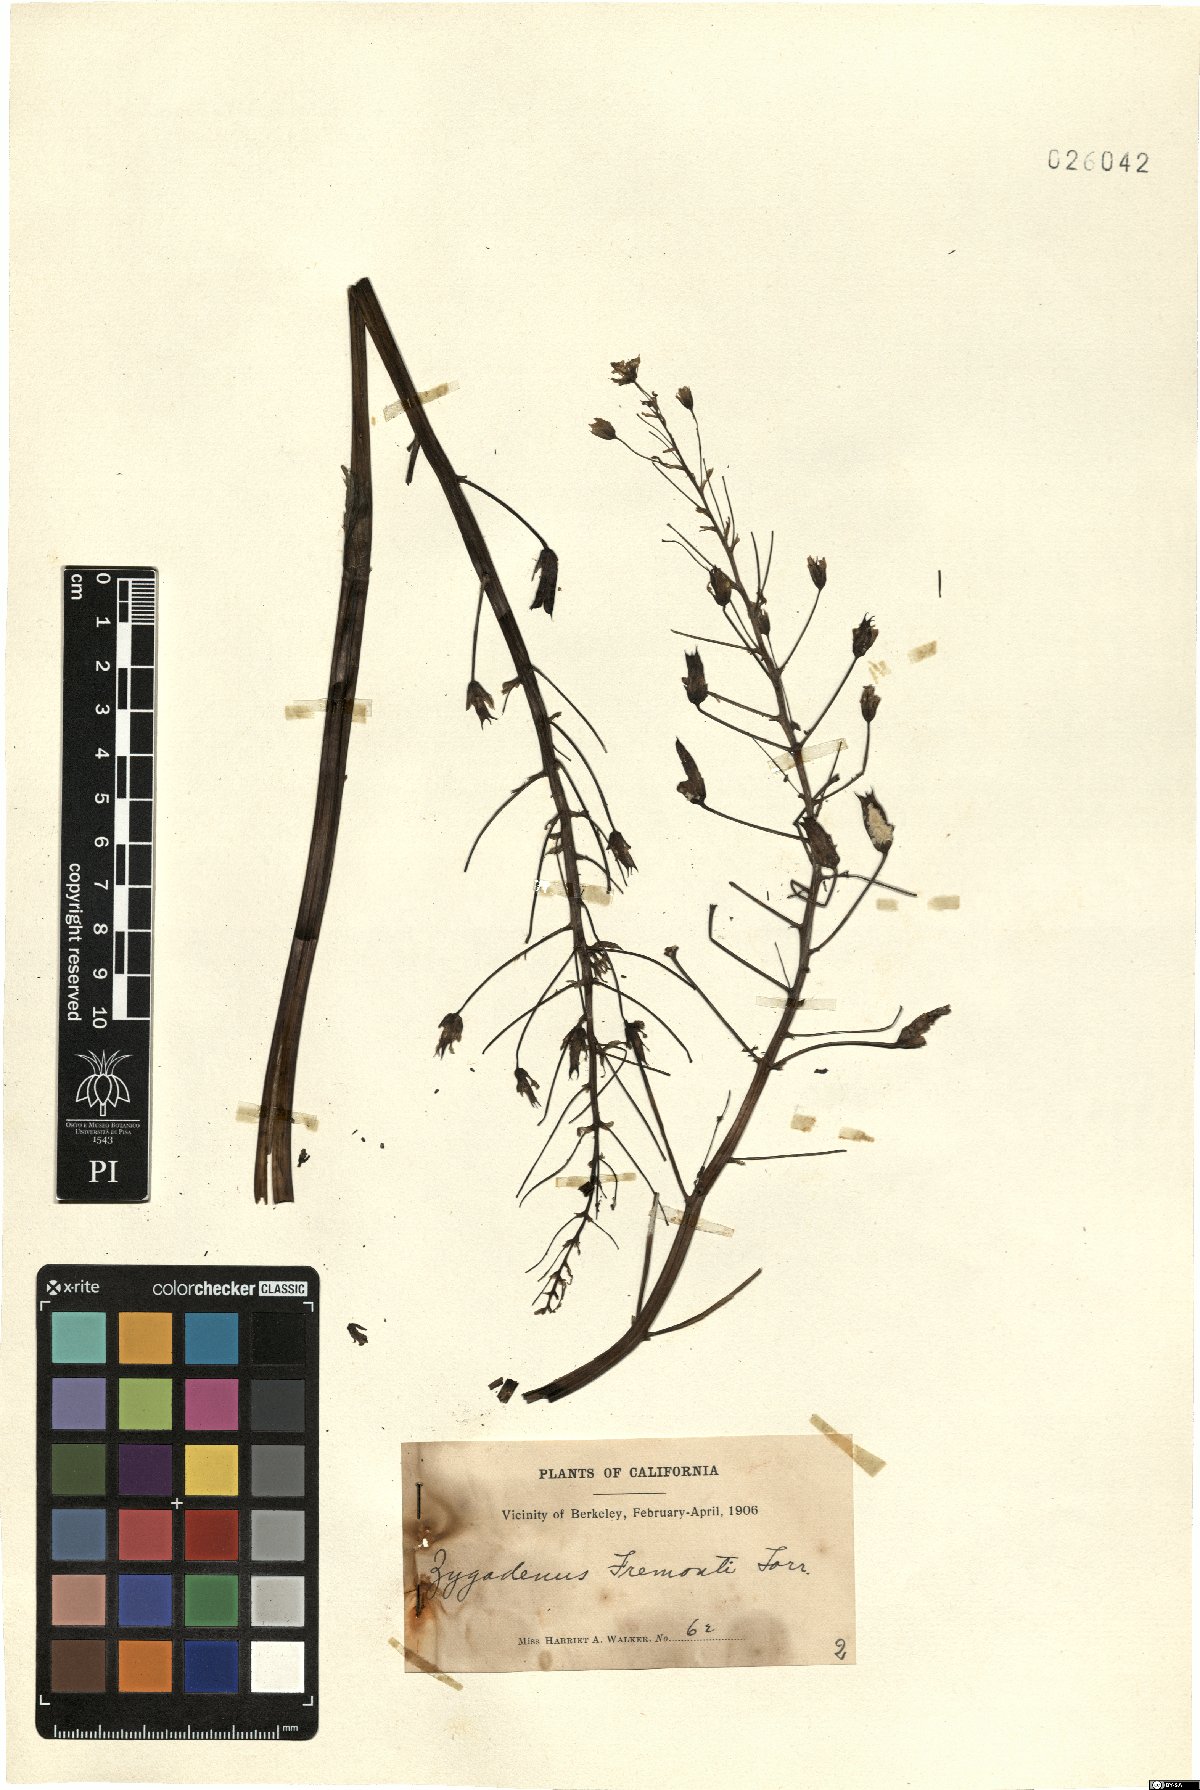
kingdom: Plantae
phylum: Tracheophyta
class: Liliopsida
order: Liliales
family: Melanthiaceae
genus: Toxicoscordion
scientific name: Toxicoscordion fremontii
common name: Fremont's death camas
